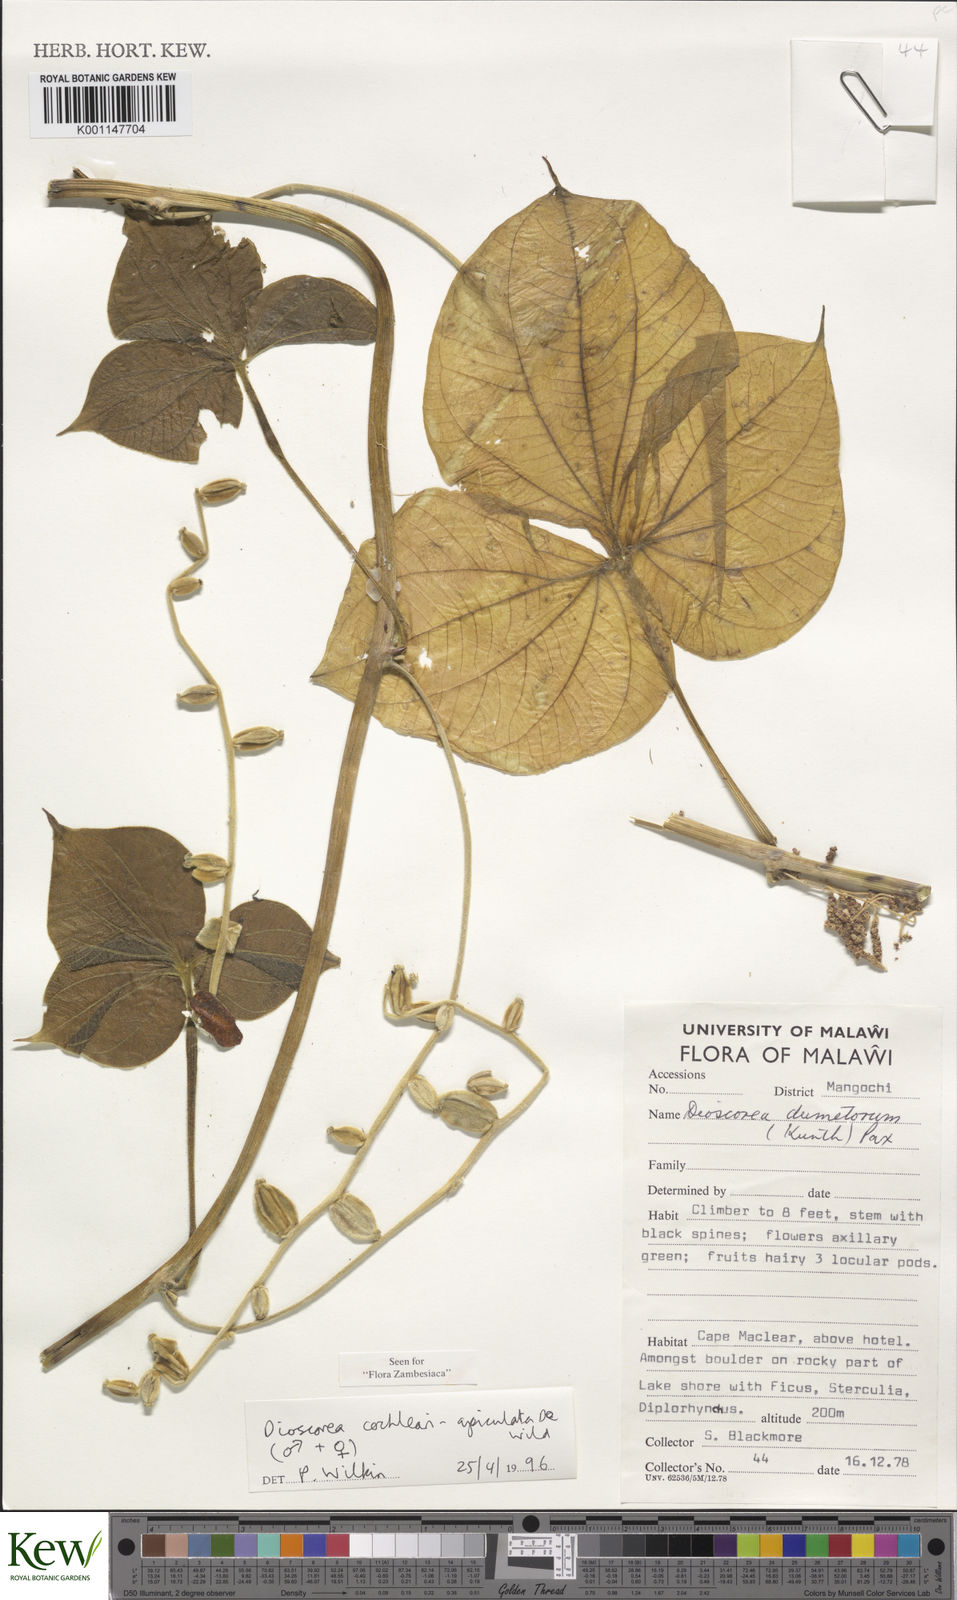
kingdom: Plantae
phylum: Tracheophyta
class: Liliopsida
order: Dioscoreales
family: Dioscoreaceae
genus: Dioscorea
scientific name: Dioscorea cochleariapiculata
